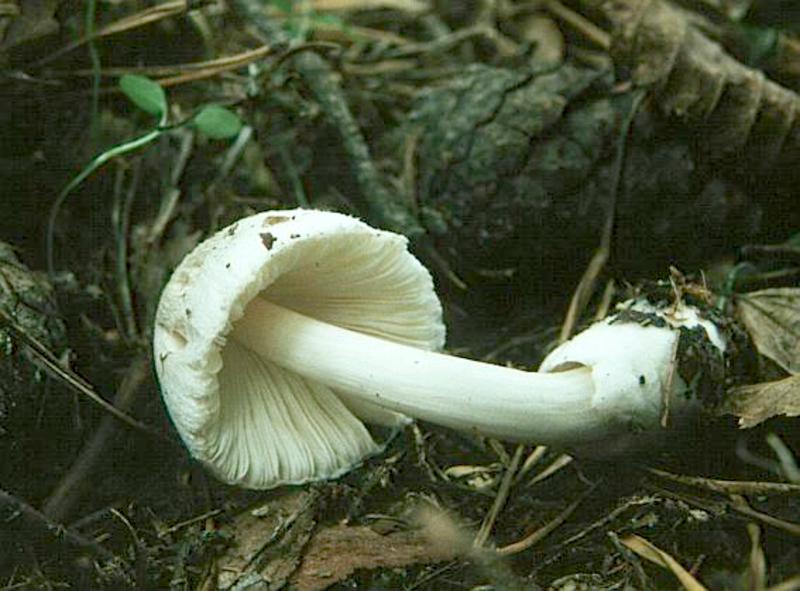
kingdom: Plantae
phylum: Tracheophyta
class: Pinopsida
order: Pinales
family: Pinaceae
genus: Pinus
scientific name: Pinus
